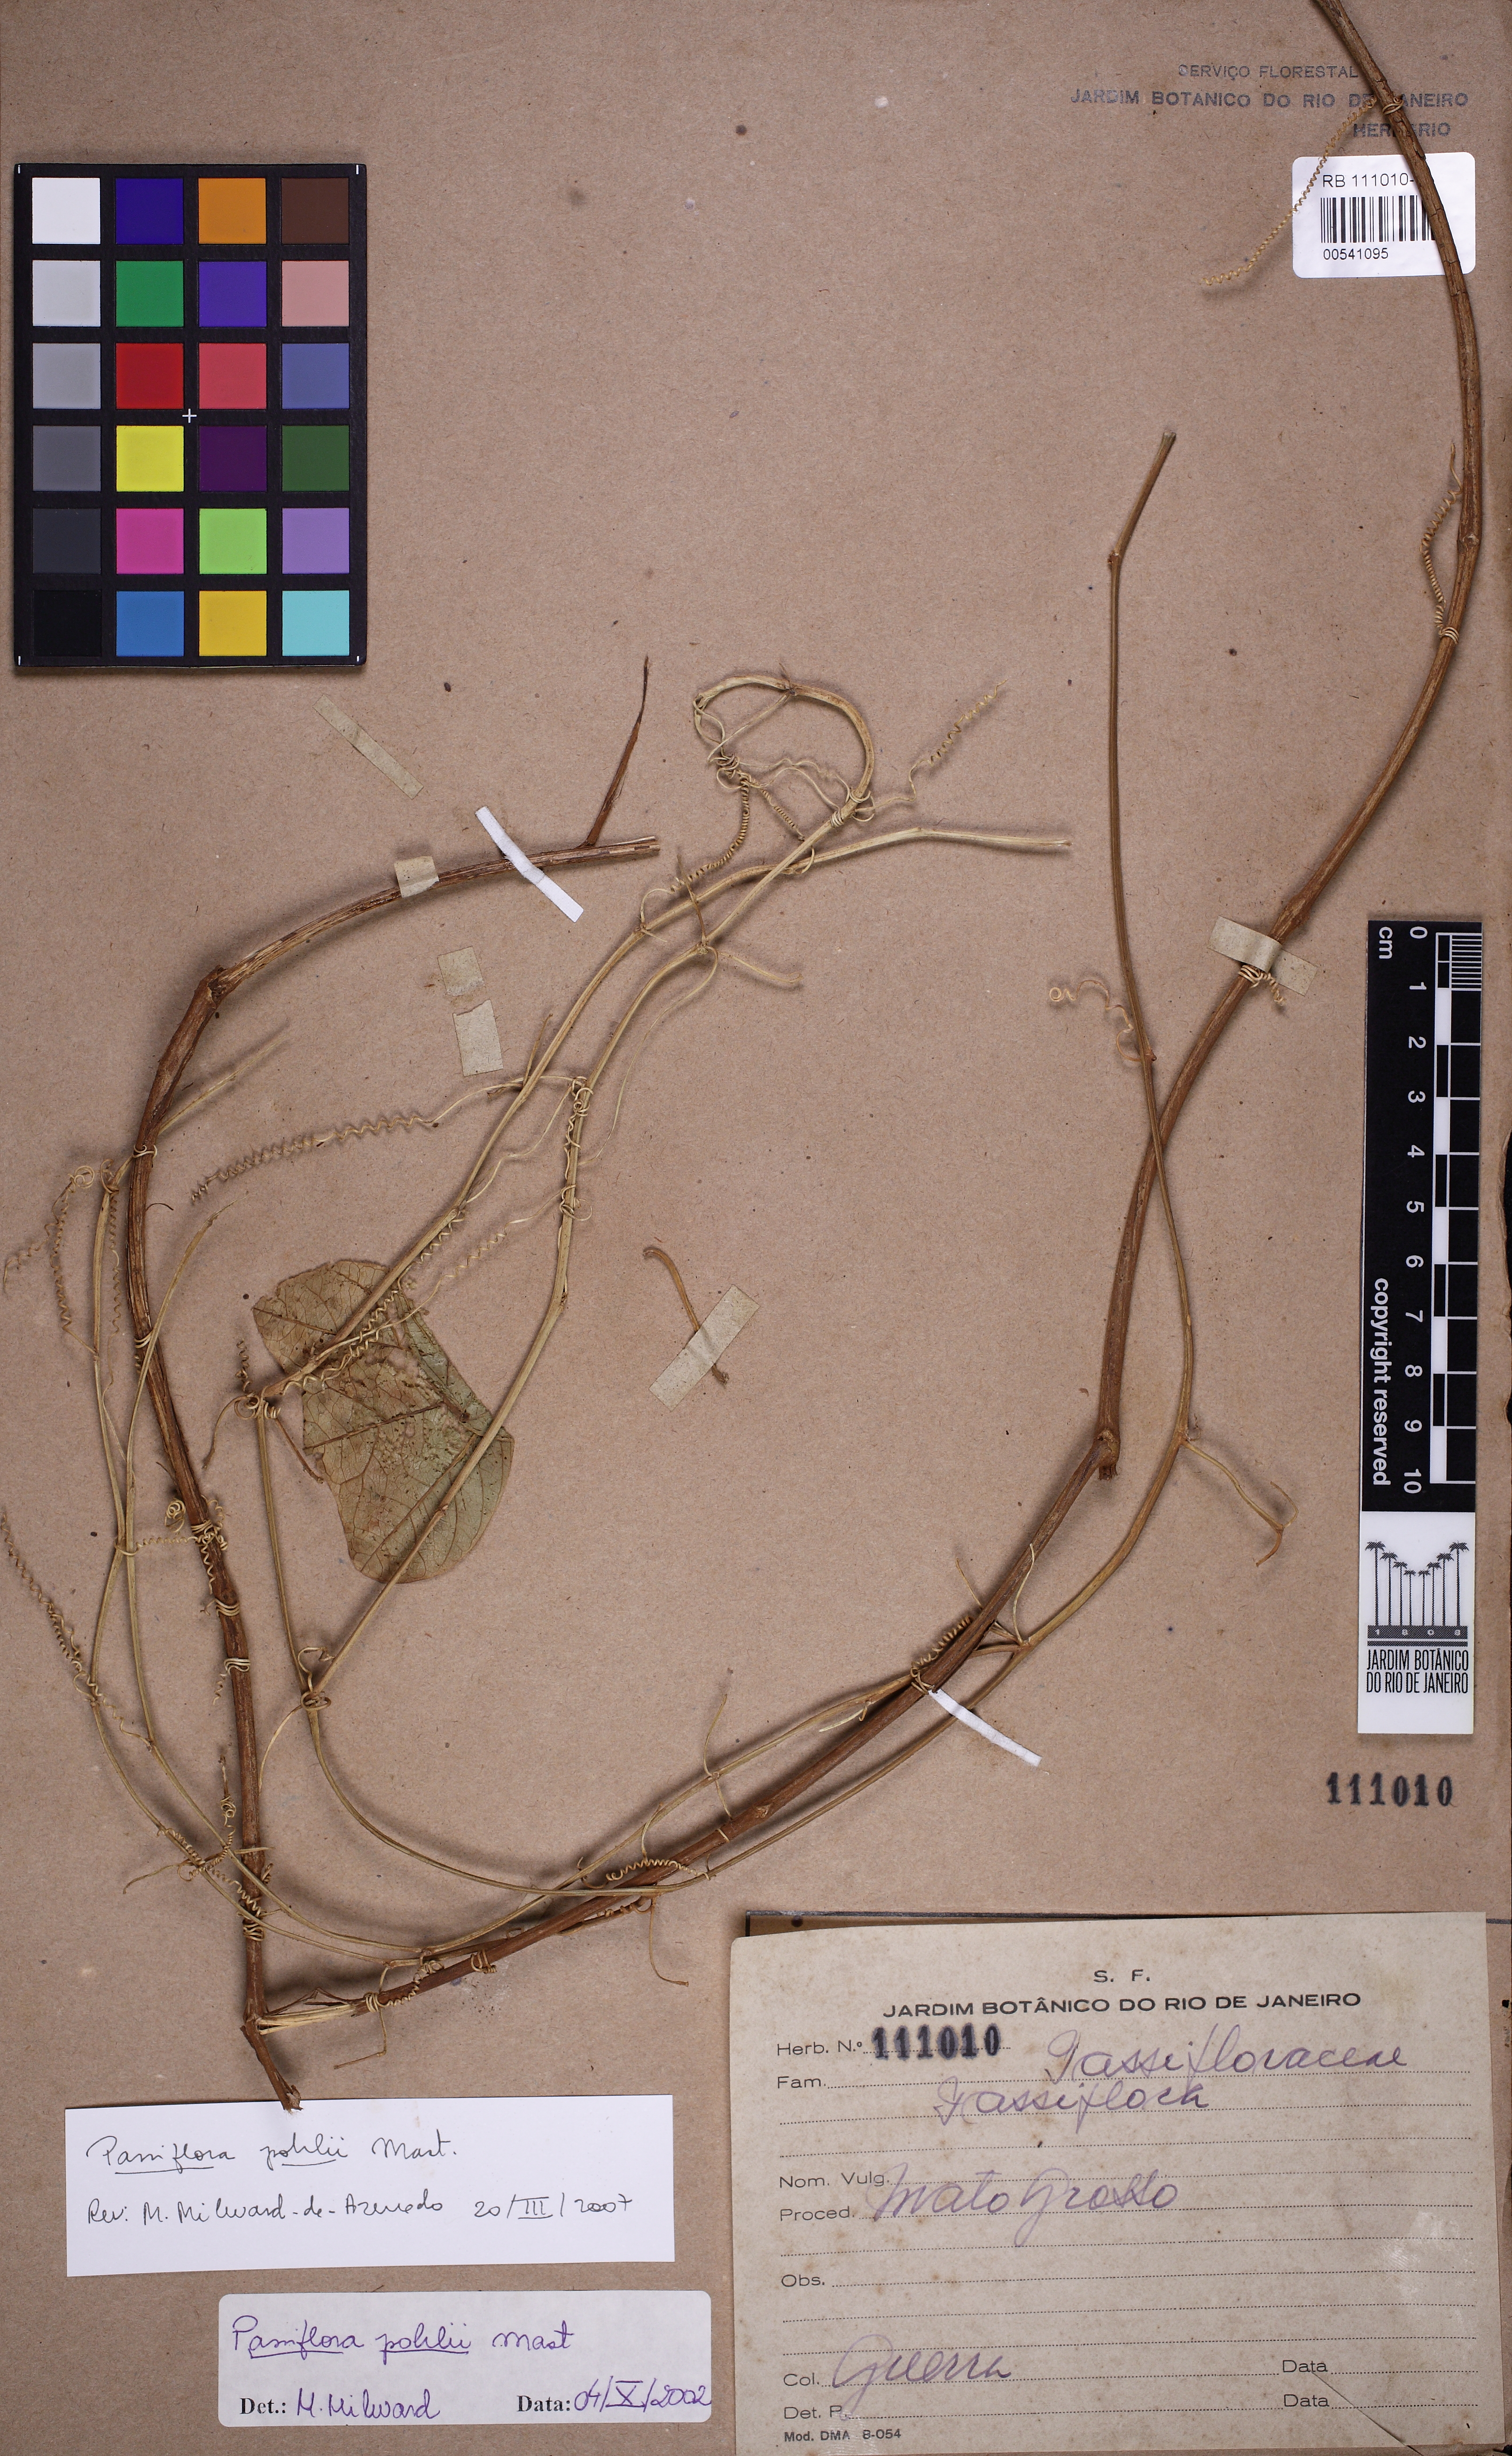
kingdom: Plantae
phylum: Tracheophyta
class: Magnoliopsida
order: Malpighiales
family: Passifloraceae
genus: Passiflora
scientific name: Passiflora pohlii
